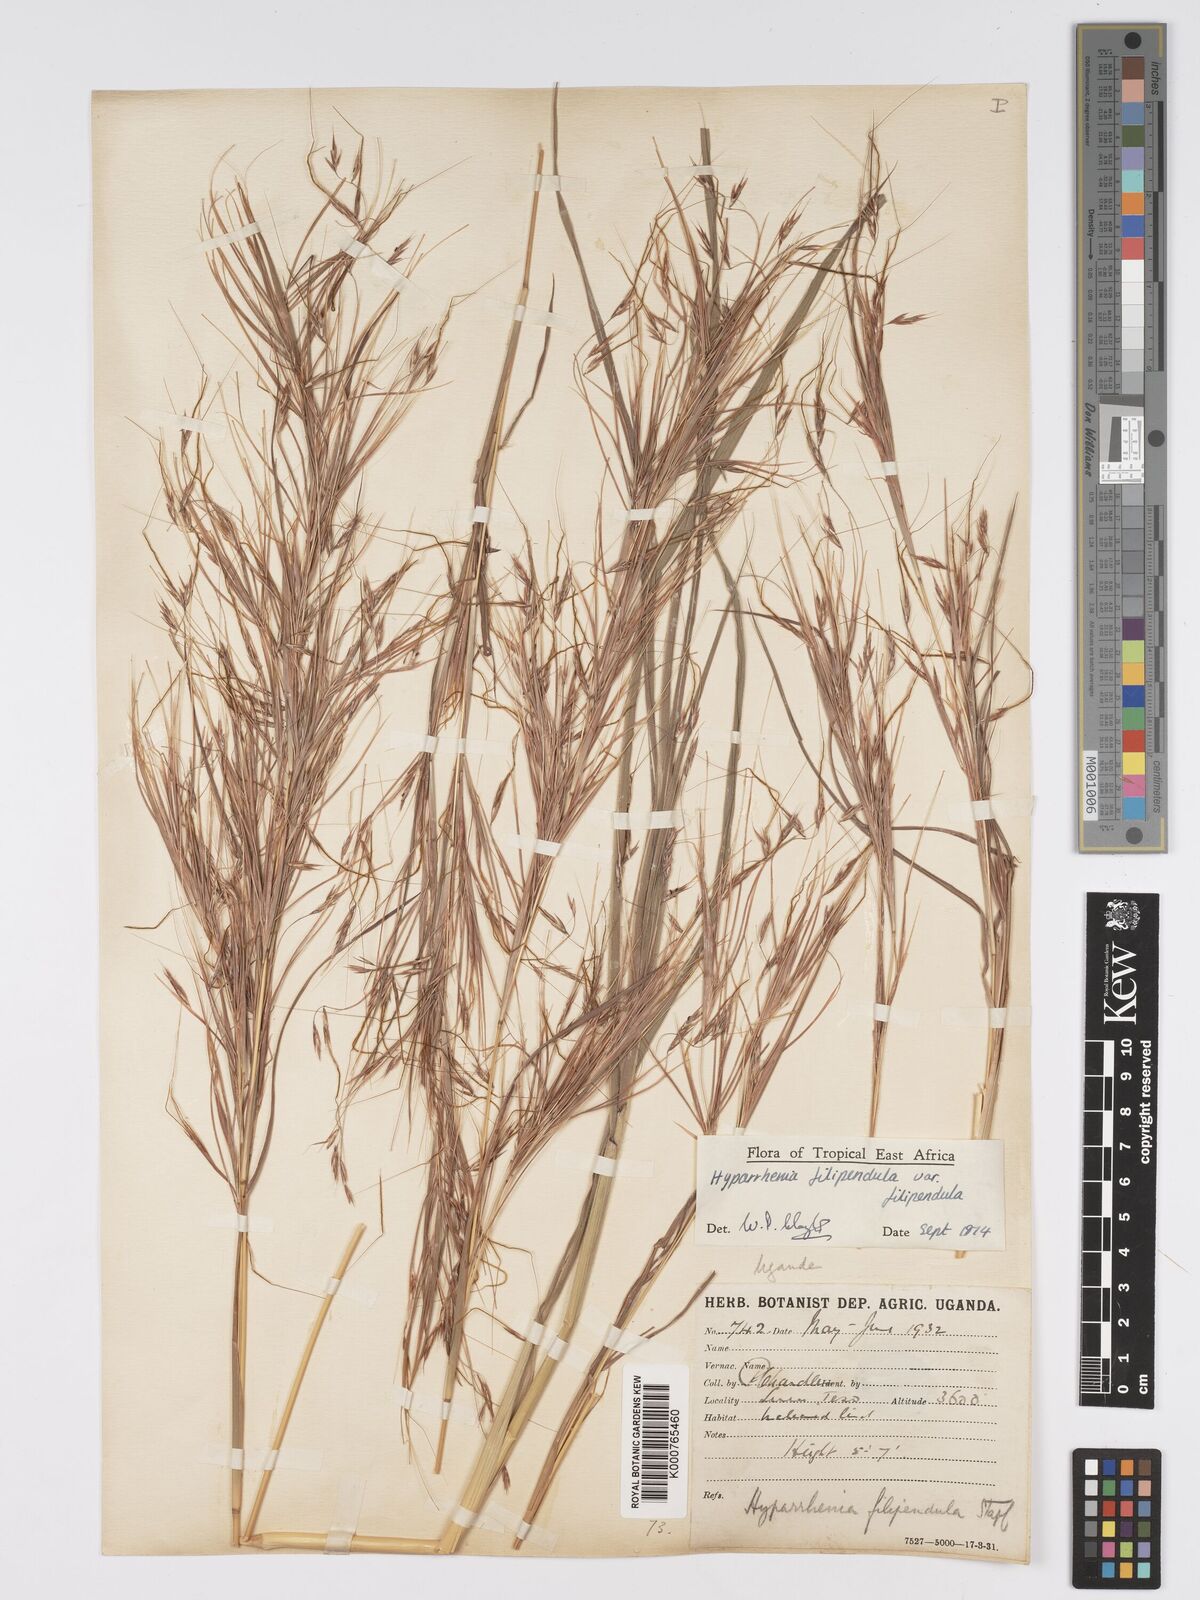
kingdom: Plantae
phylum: Tracheophyta
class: Liliopsida
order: Poales
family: Poaceae
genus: Hyparrhenia
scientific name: Hyparrhenia filipendula
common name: Tambookie grass
